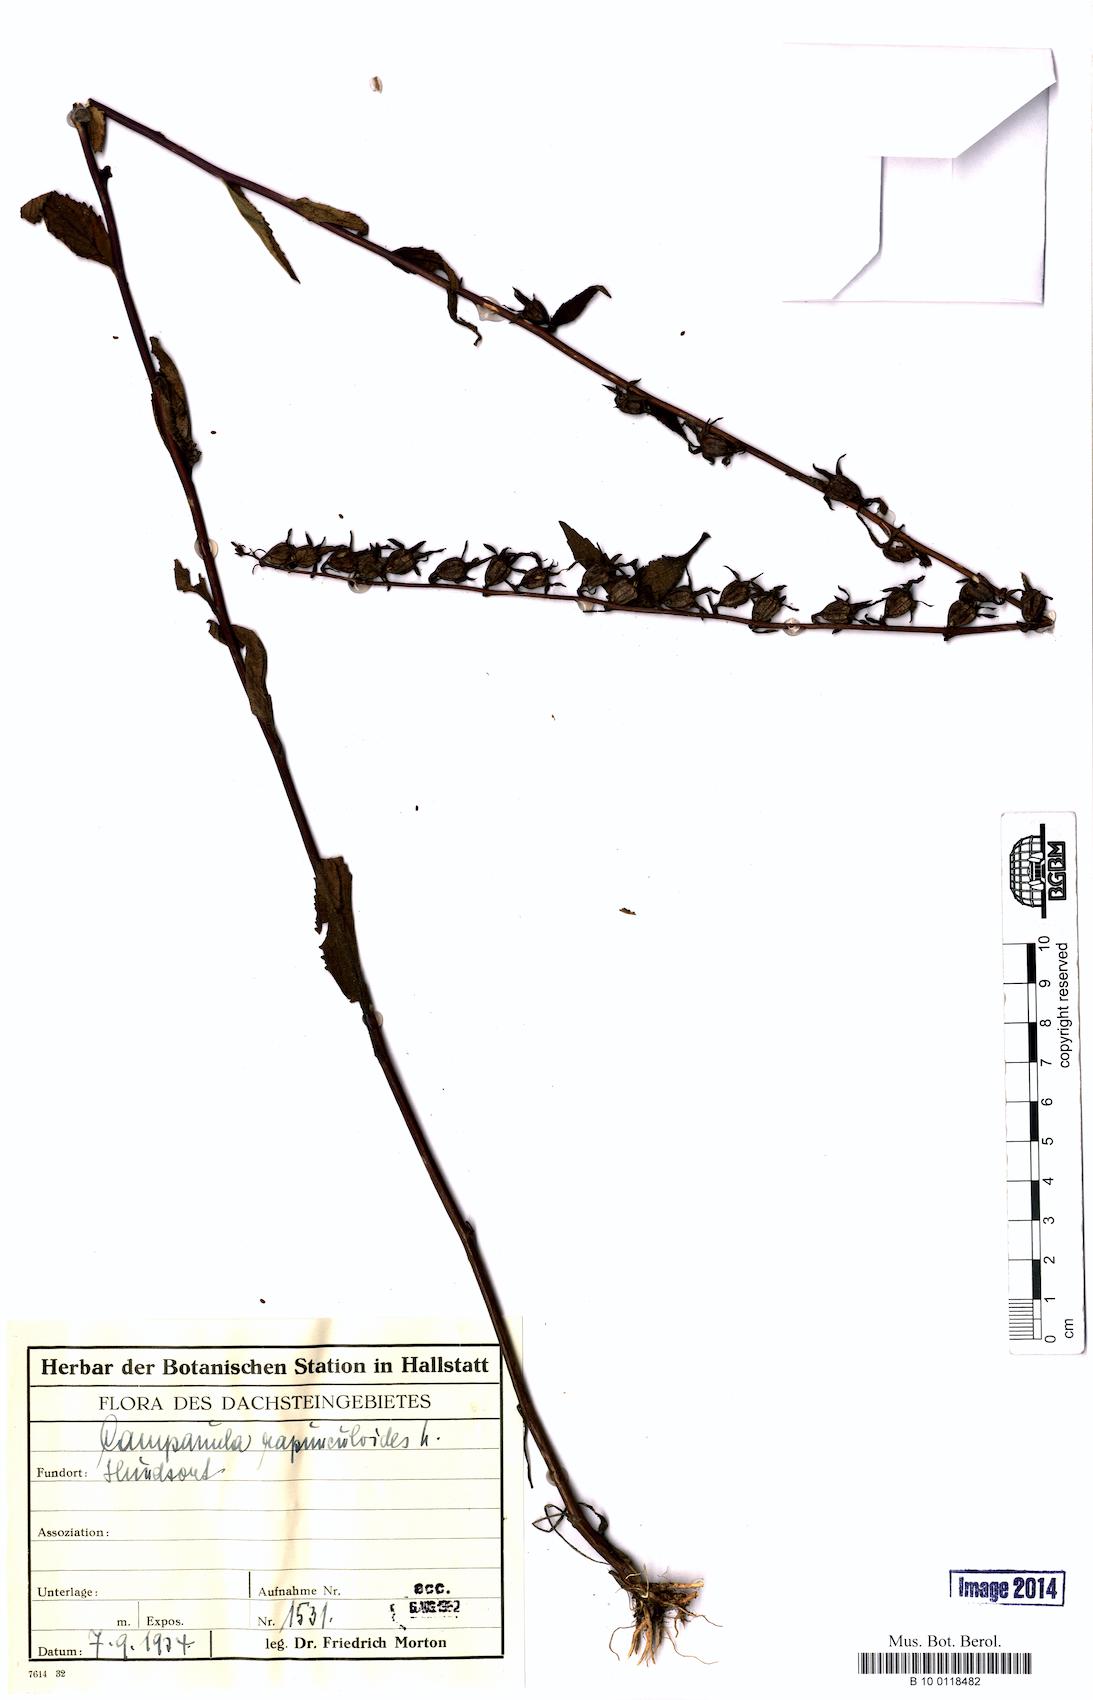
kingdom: Plantae
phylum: Tracheophyta
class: Magnoliopsida
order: Asterales
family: Campanulaceae
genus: Campanula
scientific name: Campanula rapunculoides
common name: Creeping bellflower
